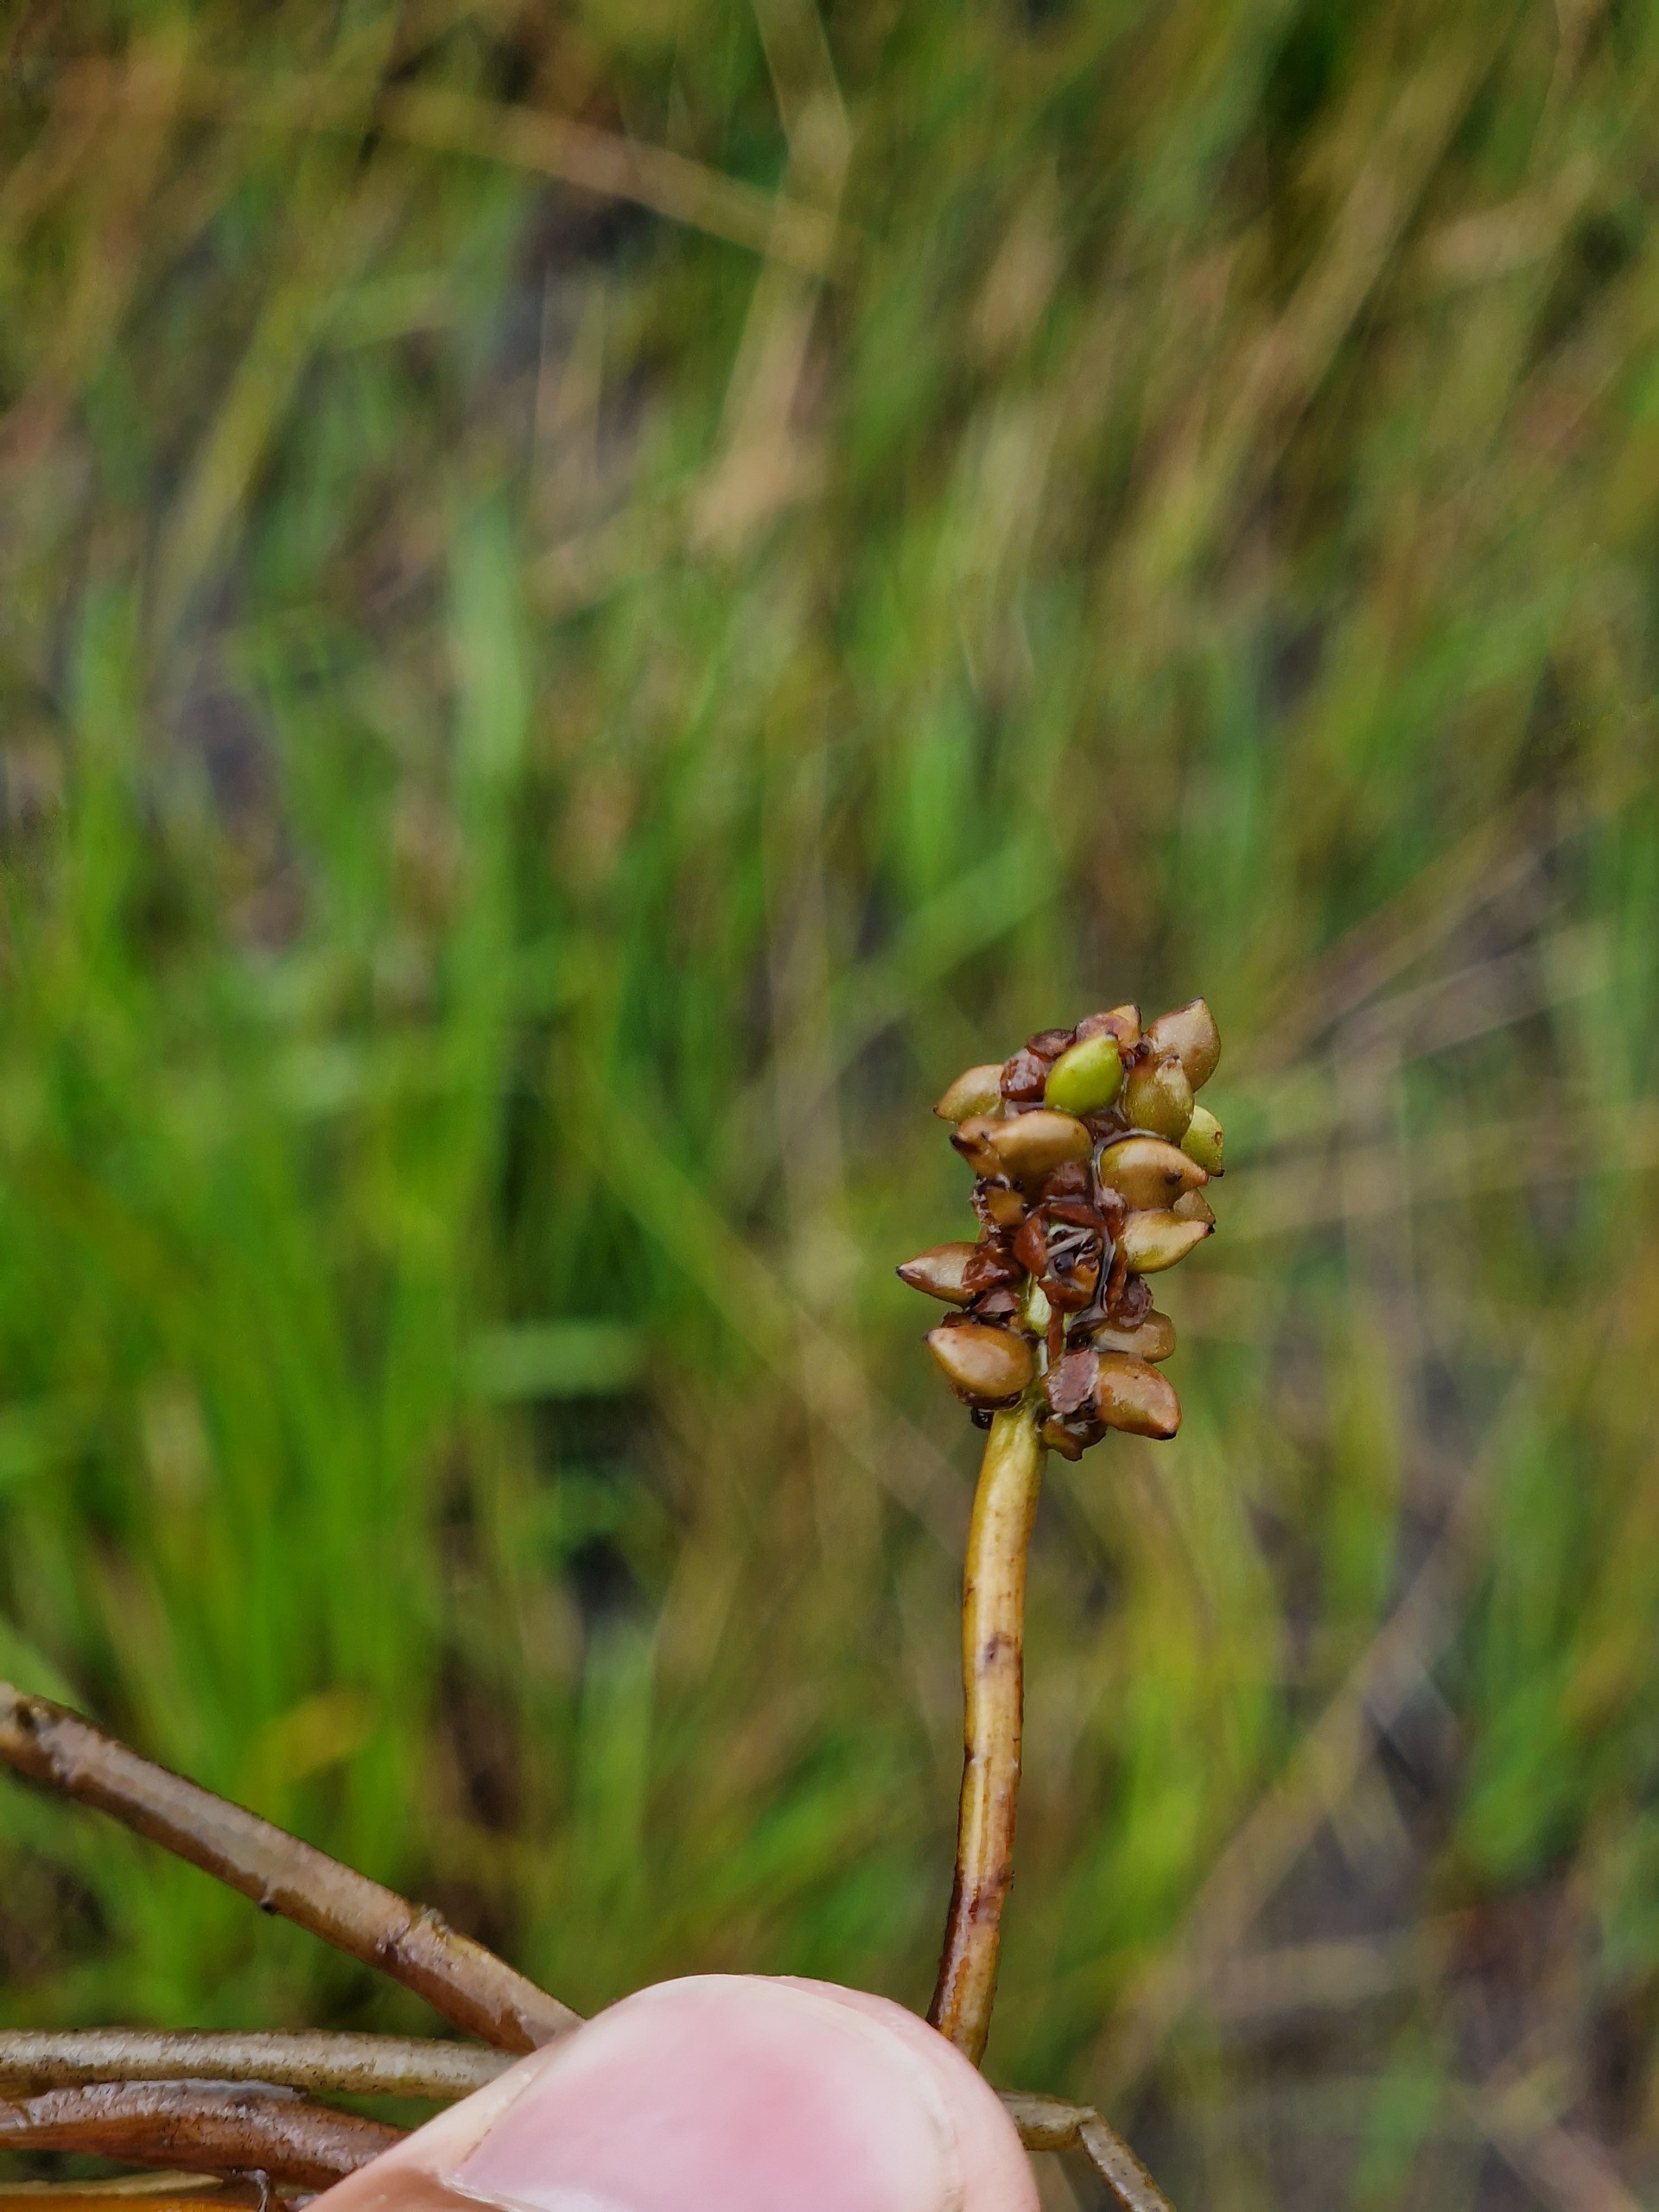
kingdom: Plantae
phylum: Tracheophyta
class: Liliopsida
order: Alismatales
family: Potamogetonaceae
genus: Potamogeton
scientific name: Potamogeton
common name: Vandaks (Potamogeton-slægten)
